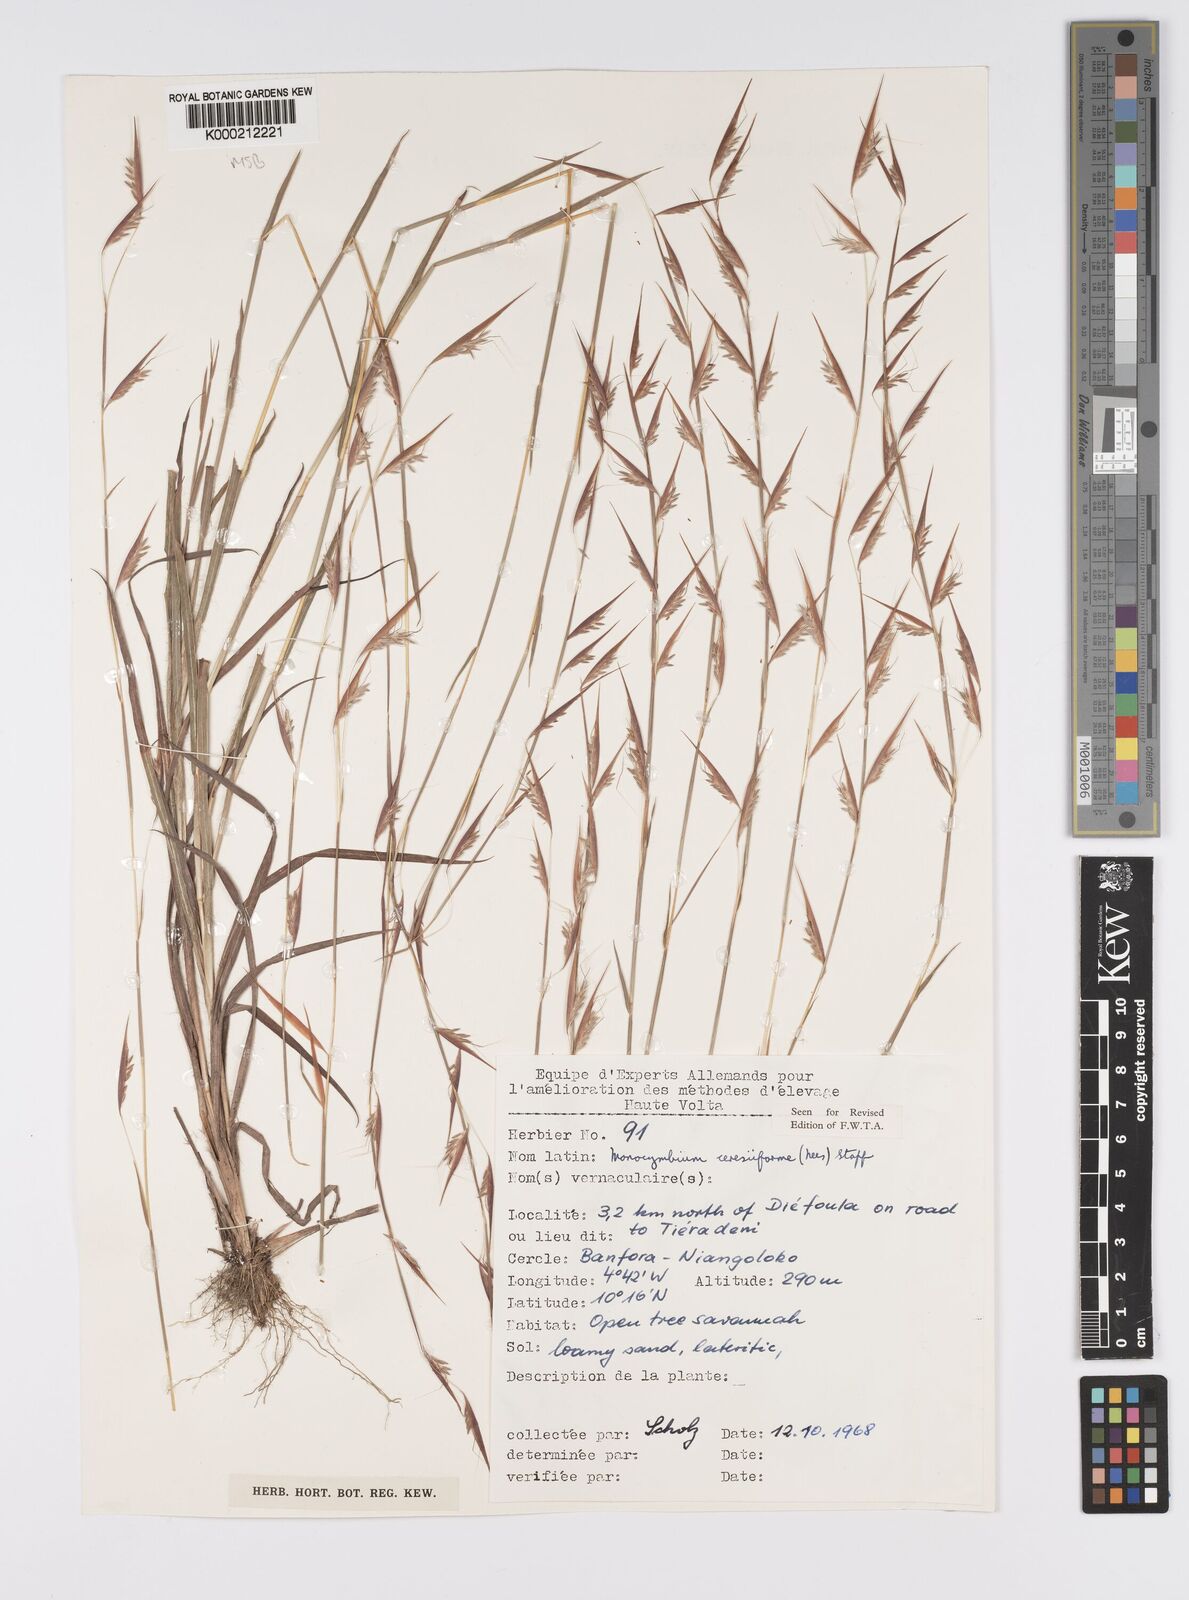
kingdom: Plantae
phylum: Tracheophyta
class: Liliopsida
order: Poales
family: Poaceae
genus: Monocymbium
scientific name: Monocymbium ceresiiforme
